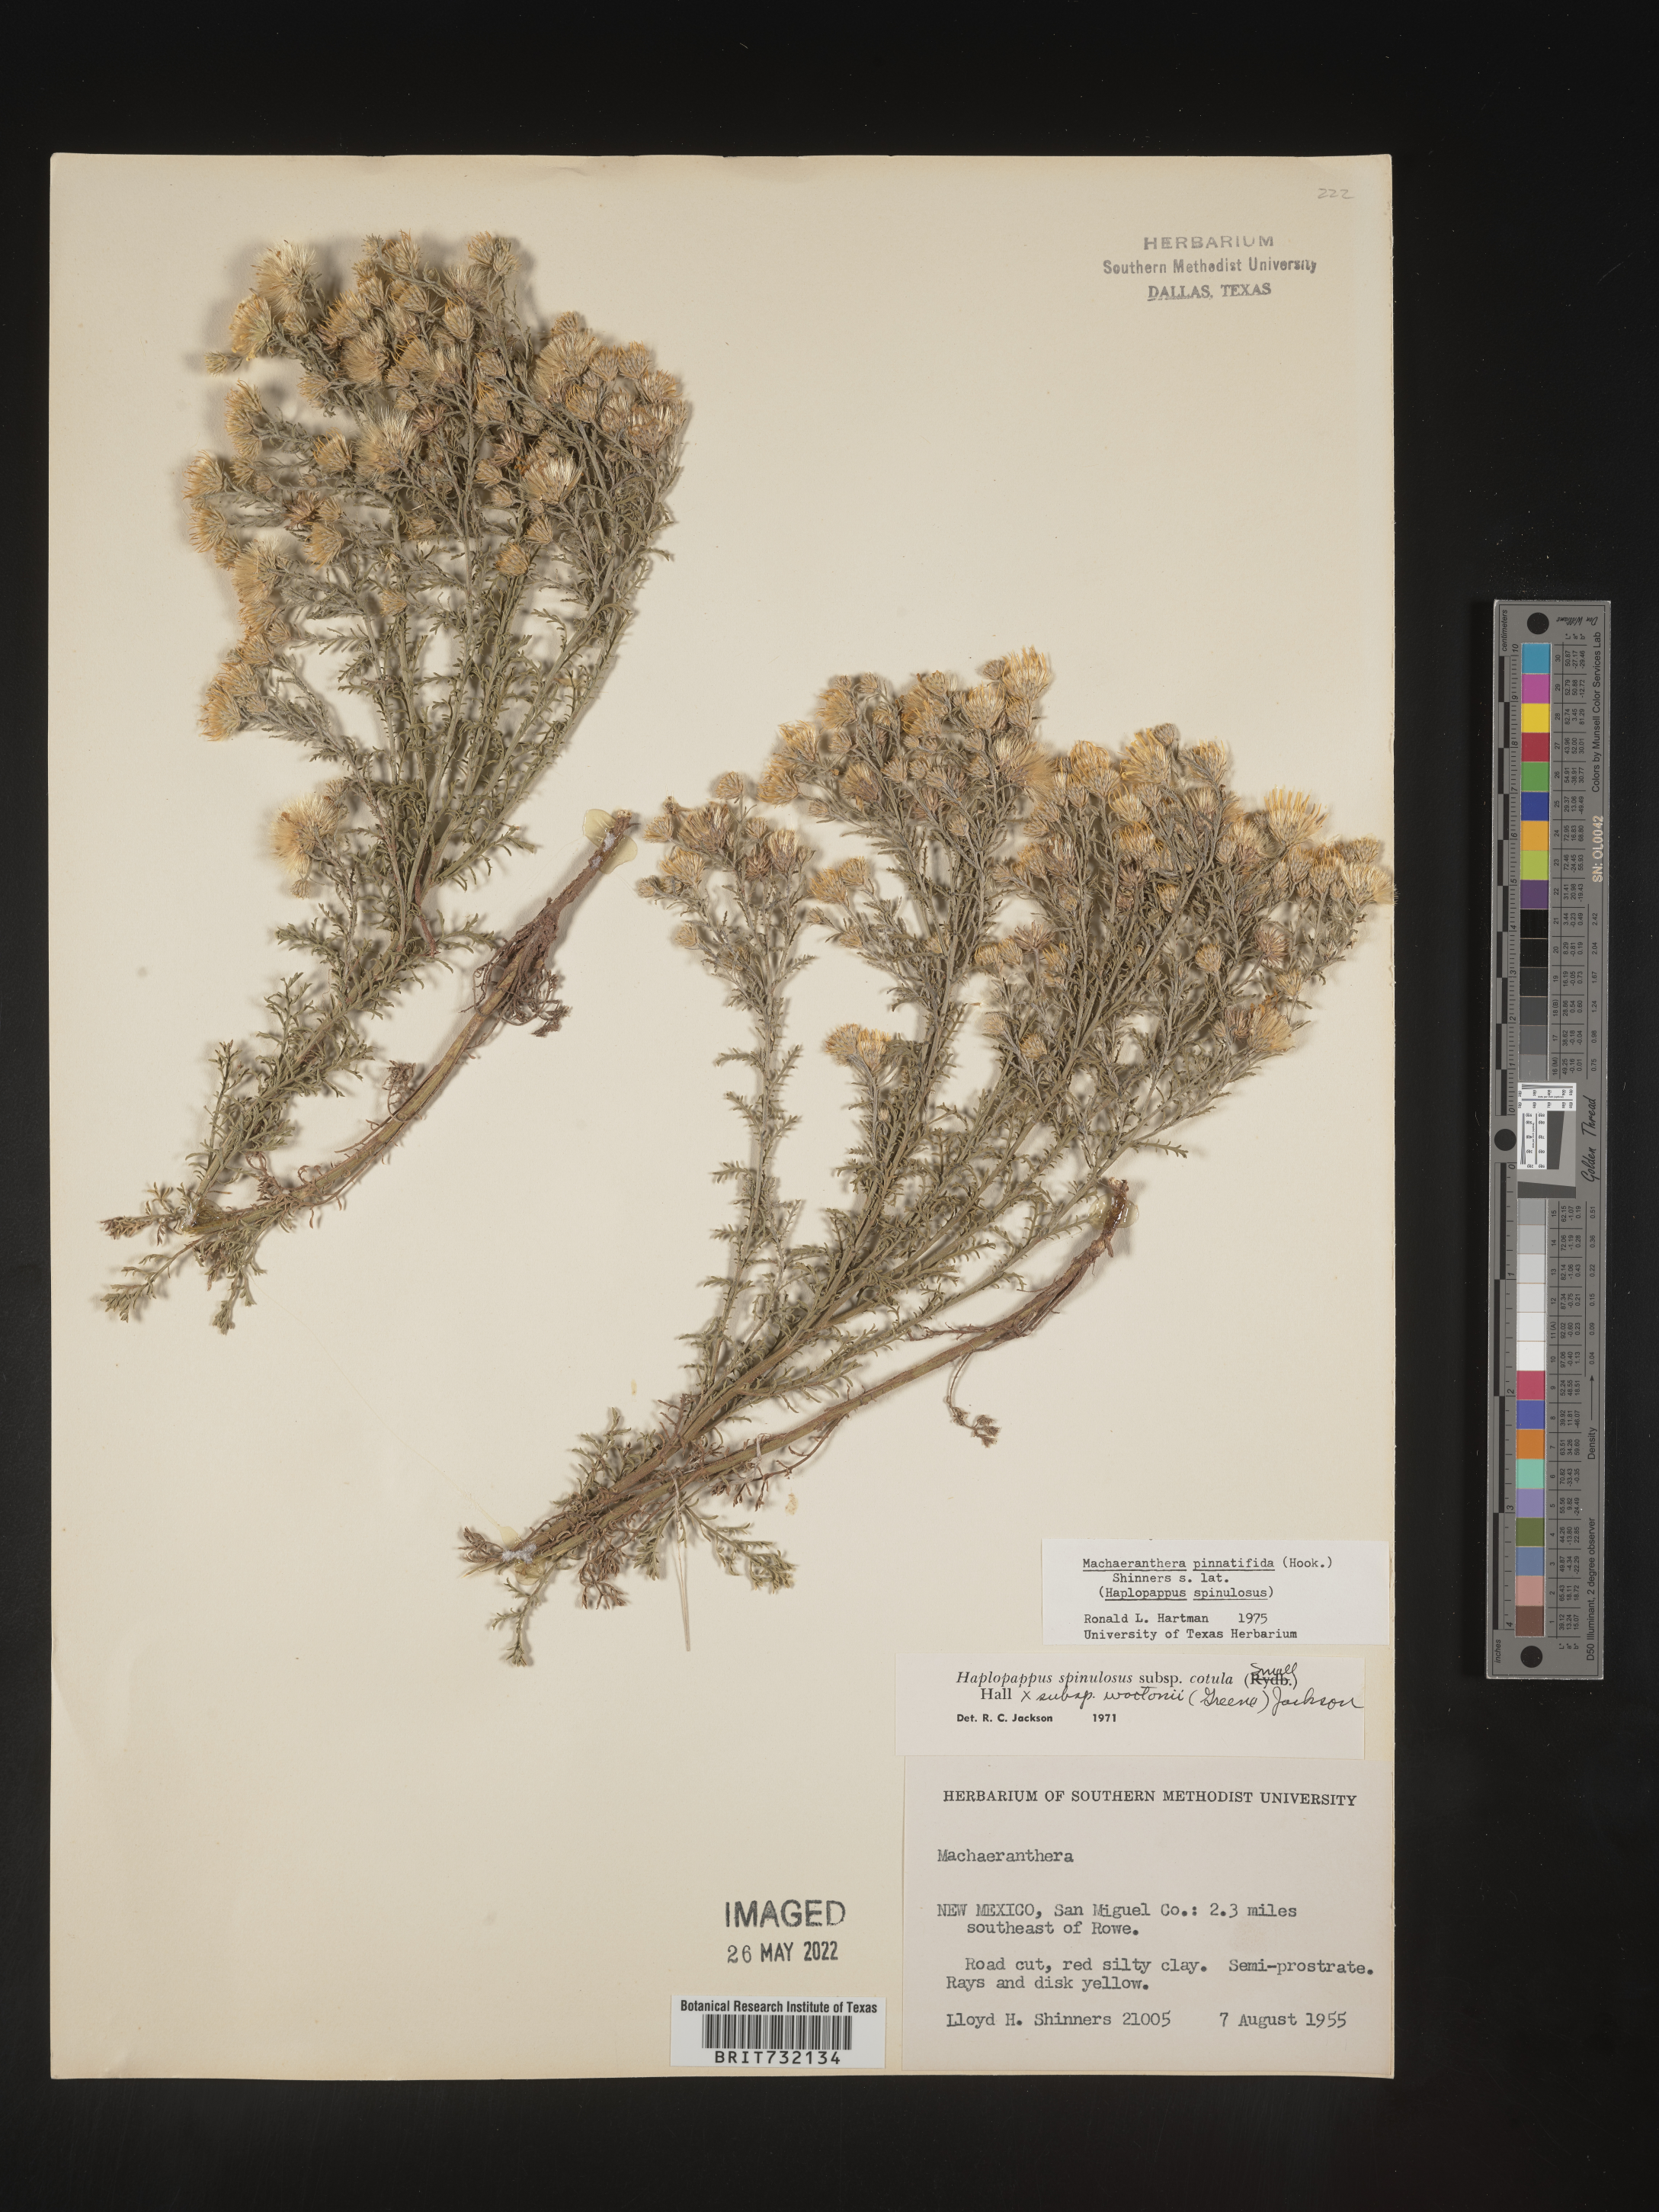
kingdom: Plantae
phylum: Tracheophyta
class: Magnoliopsida
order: Asterales
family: Asteraceae
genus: Xanthisma
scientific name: Xanthisma spinulosum
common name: Spiny goldenweed
